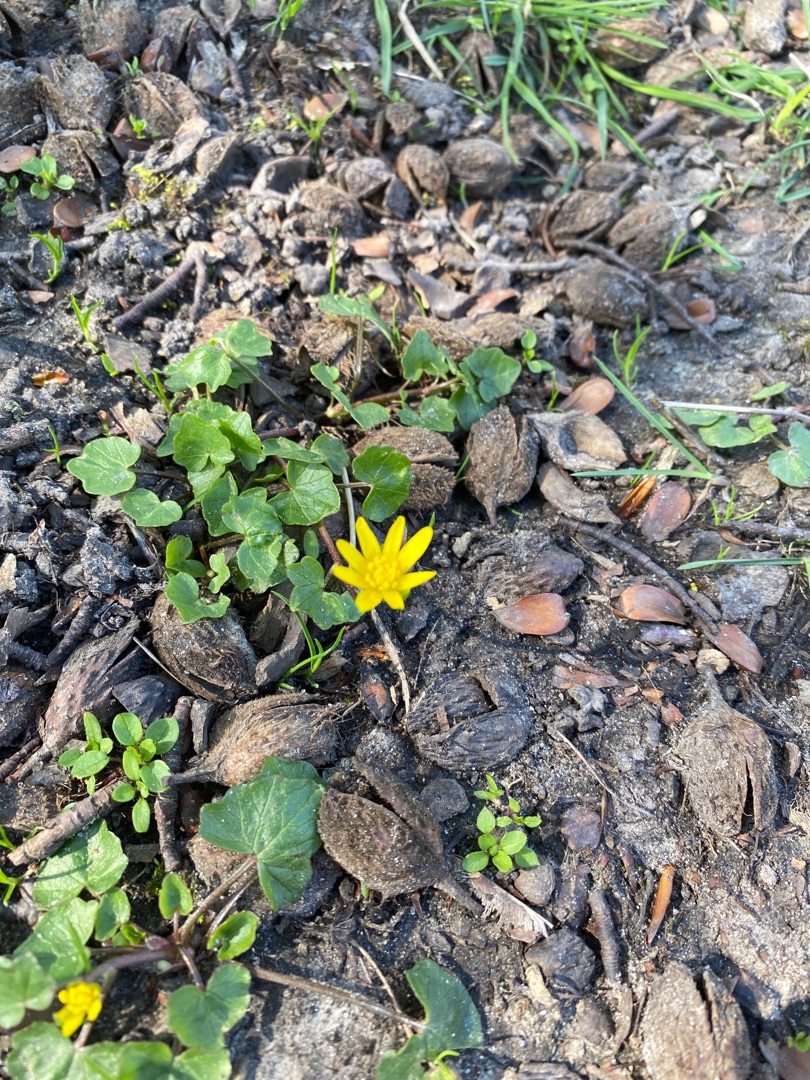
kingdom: Plantae
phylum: Tracheophyta
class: Magnoliopsida
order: Ranunculales
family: Ranunculaceae
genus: Ficaria
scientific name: Ficaria verna
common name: Vorterod
